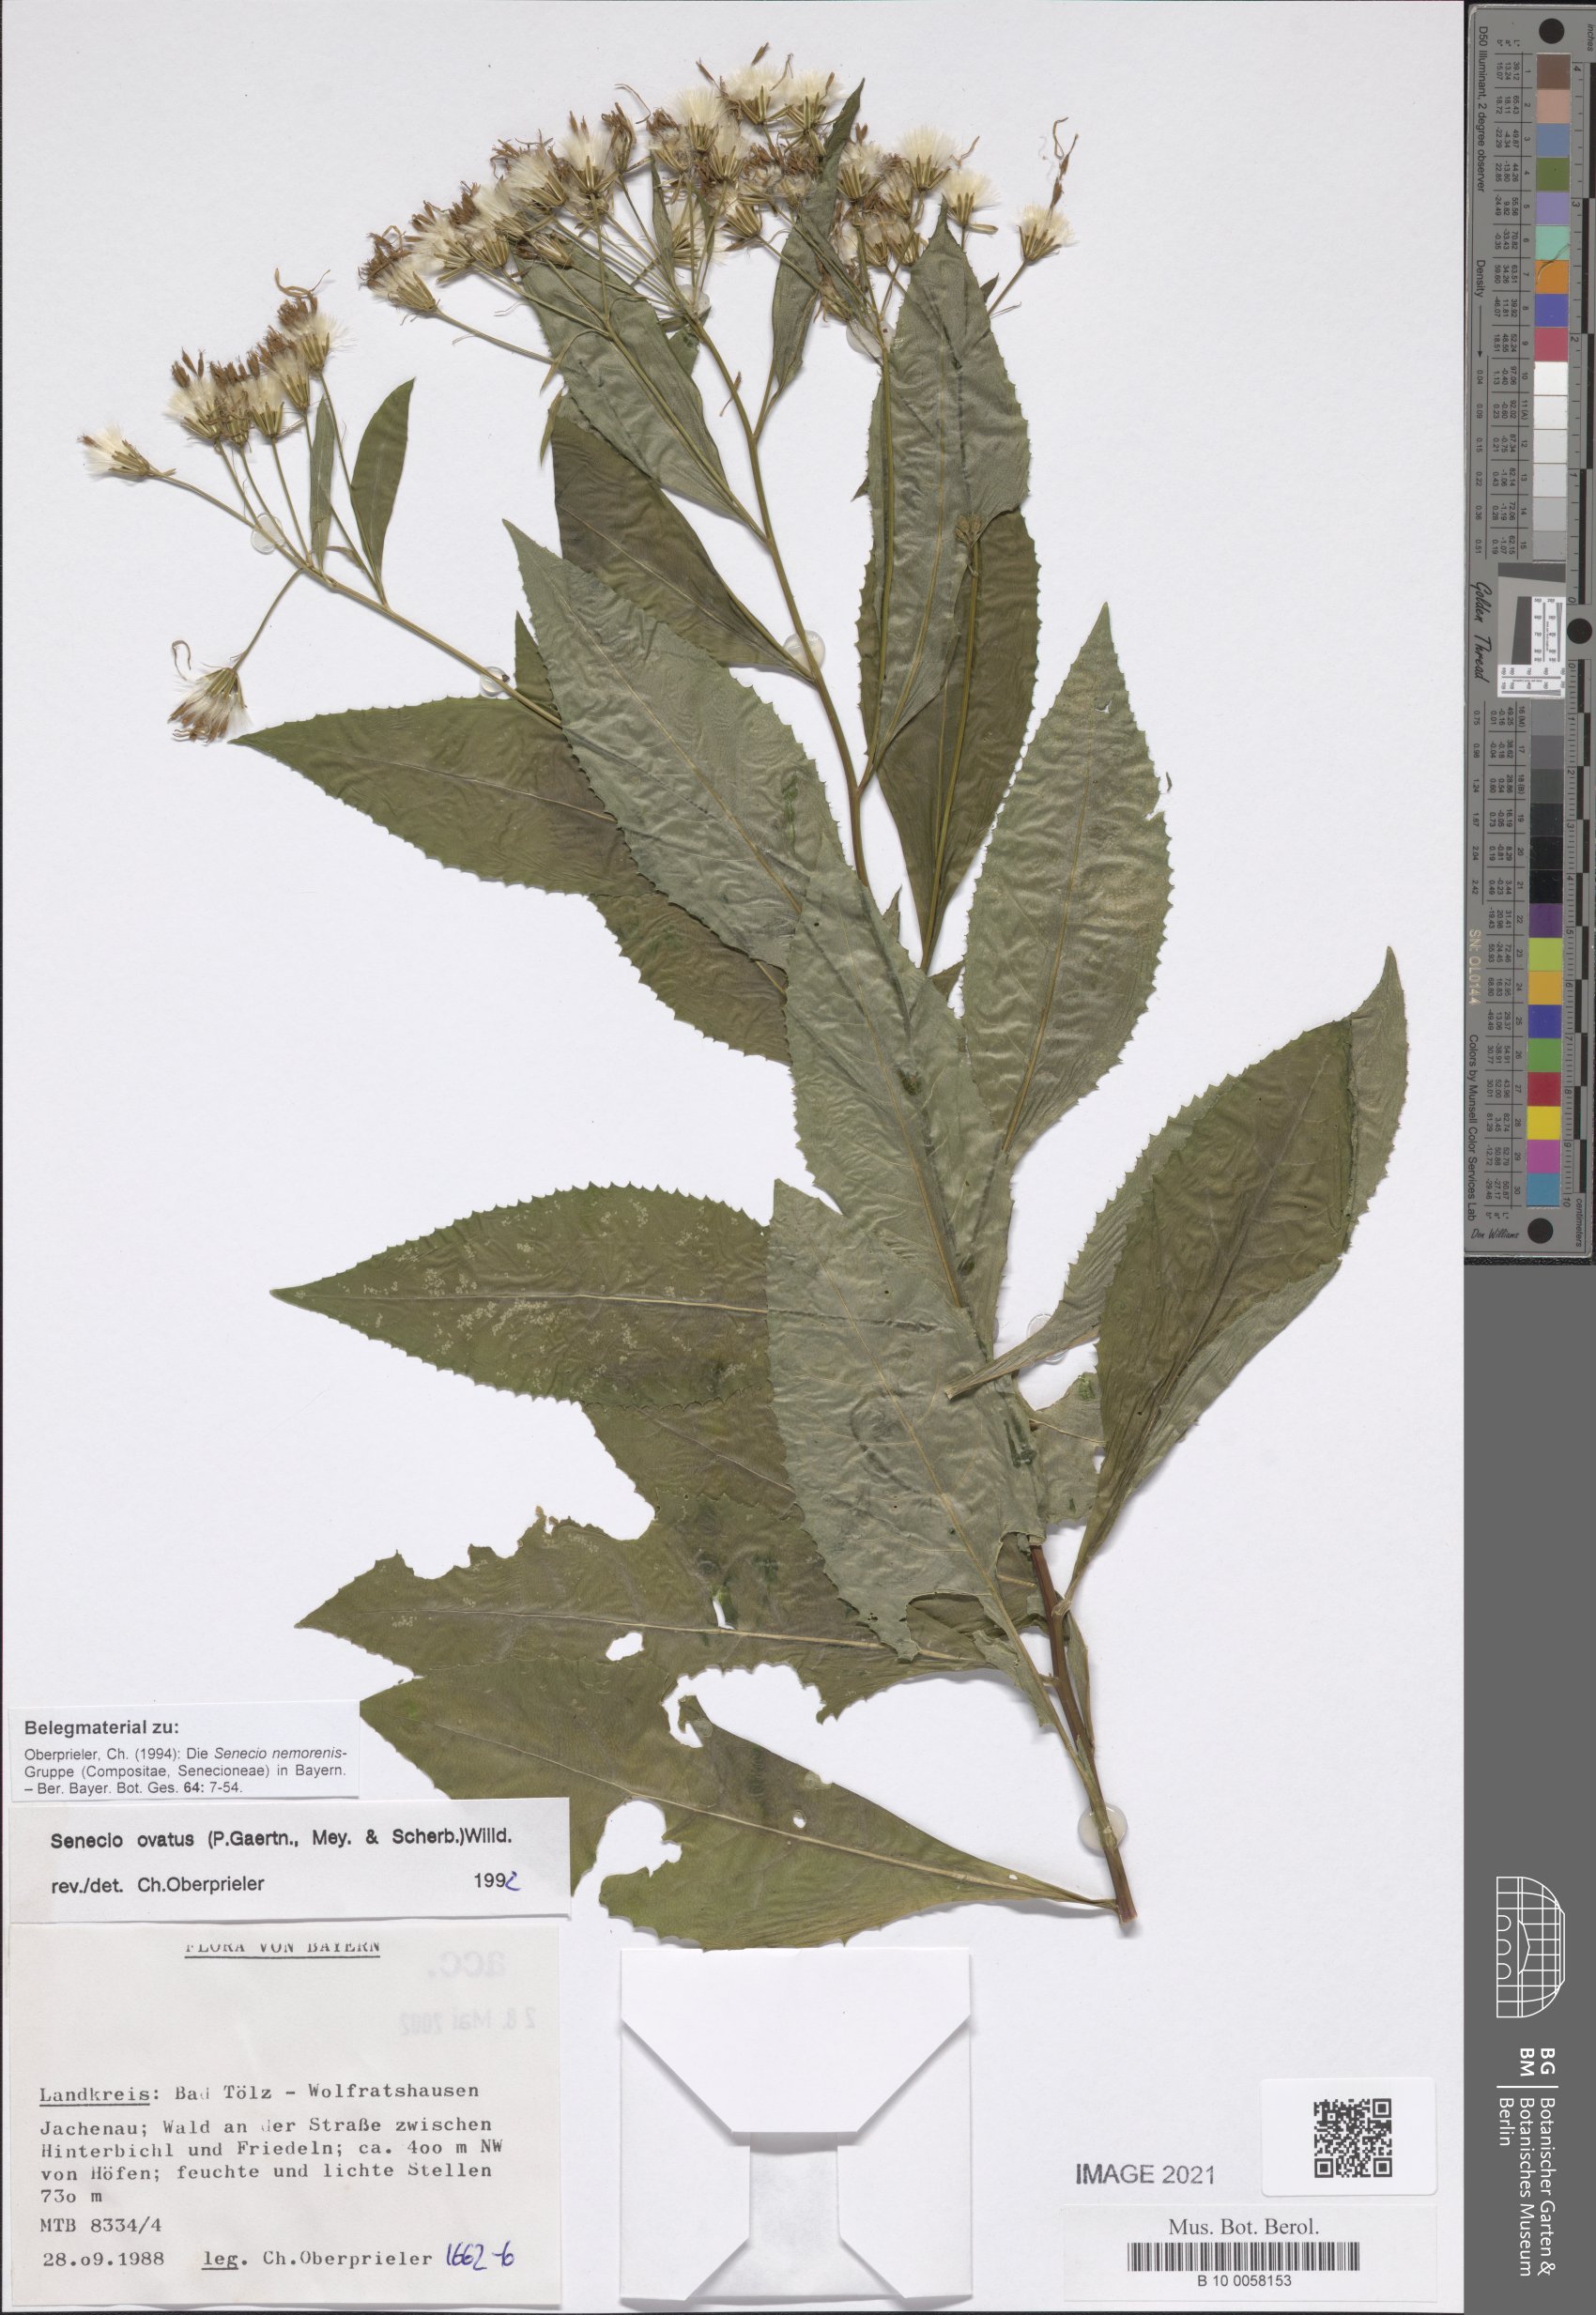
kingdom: Plantae
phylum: Tracheophyta
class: Magnoliopsida
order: Asterales
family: Asteraceae
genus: Senecio
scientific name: Senecio ovatus
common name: Wood ragwort
